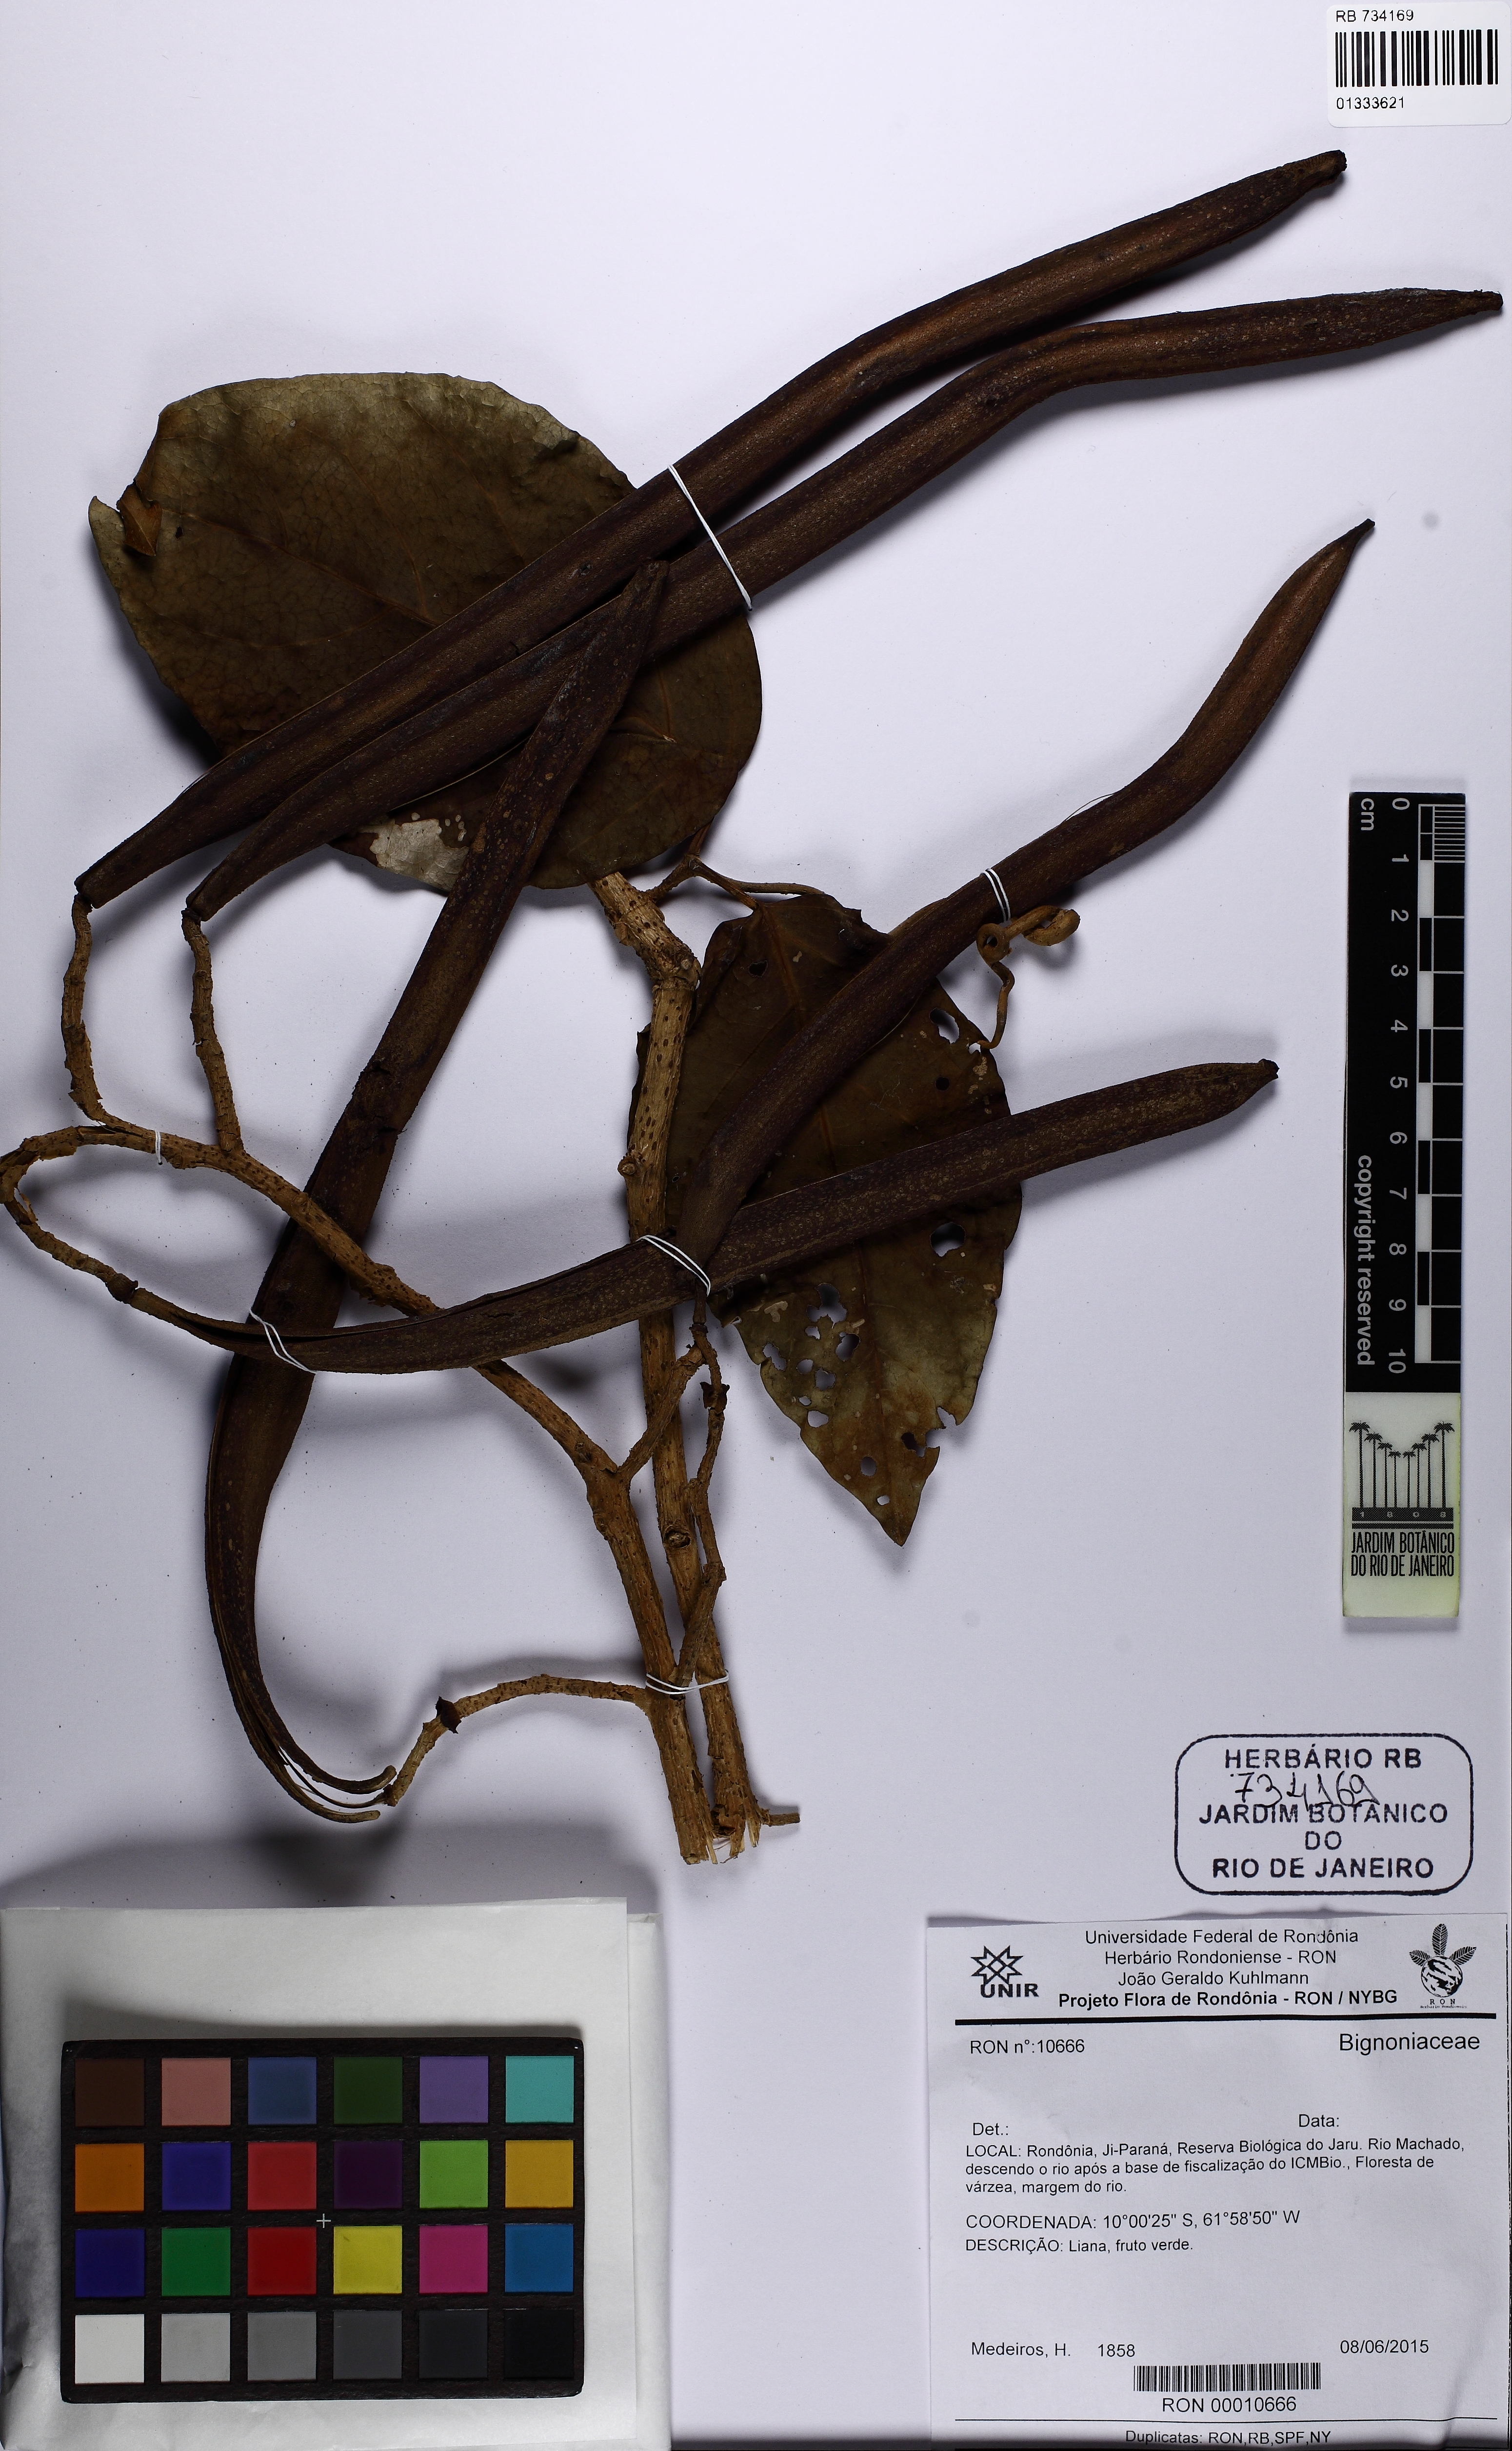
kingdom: Plantae
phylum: Tracheophyta
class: Magnoliopsida
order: Lamiales
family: Bignoniaceae
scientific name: Bignoniaceae
